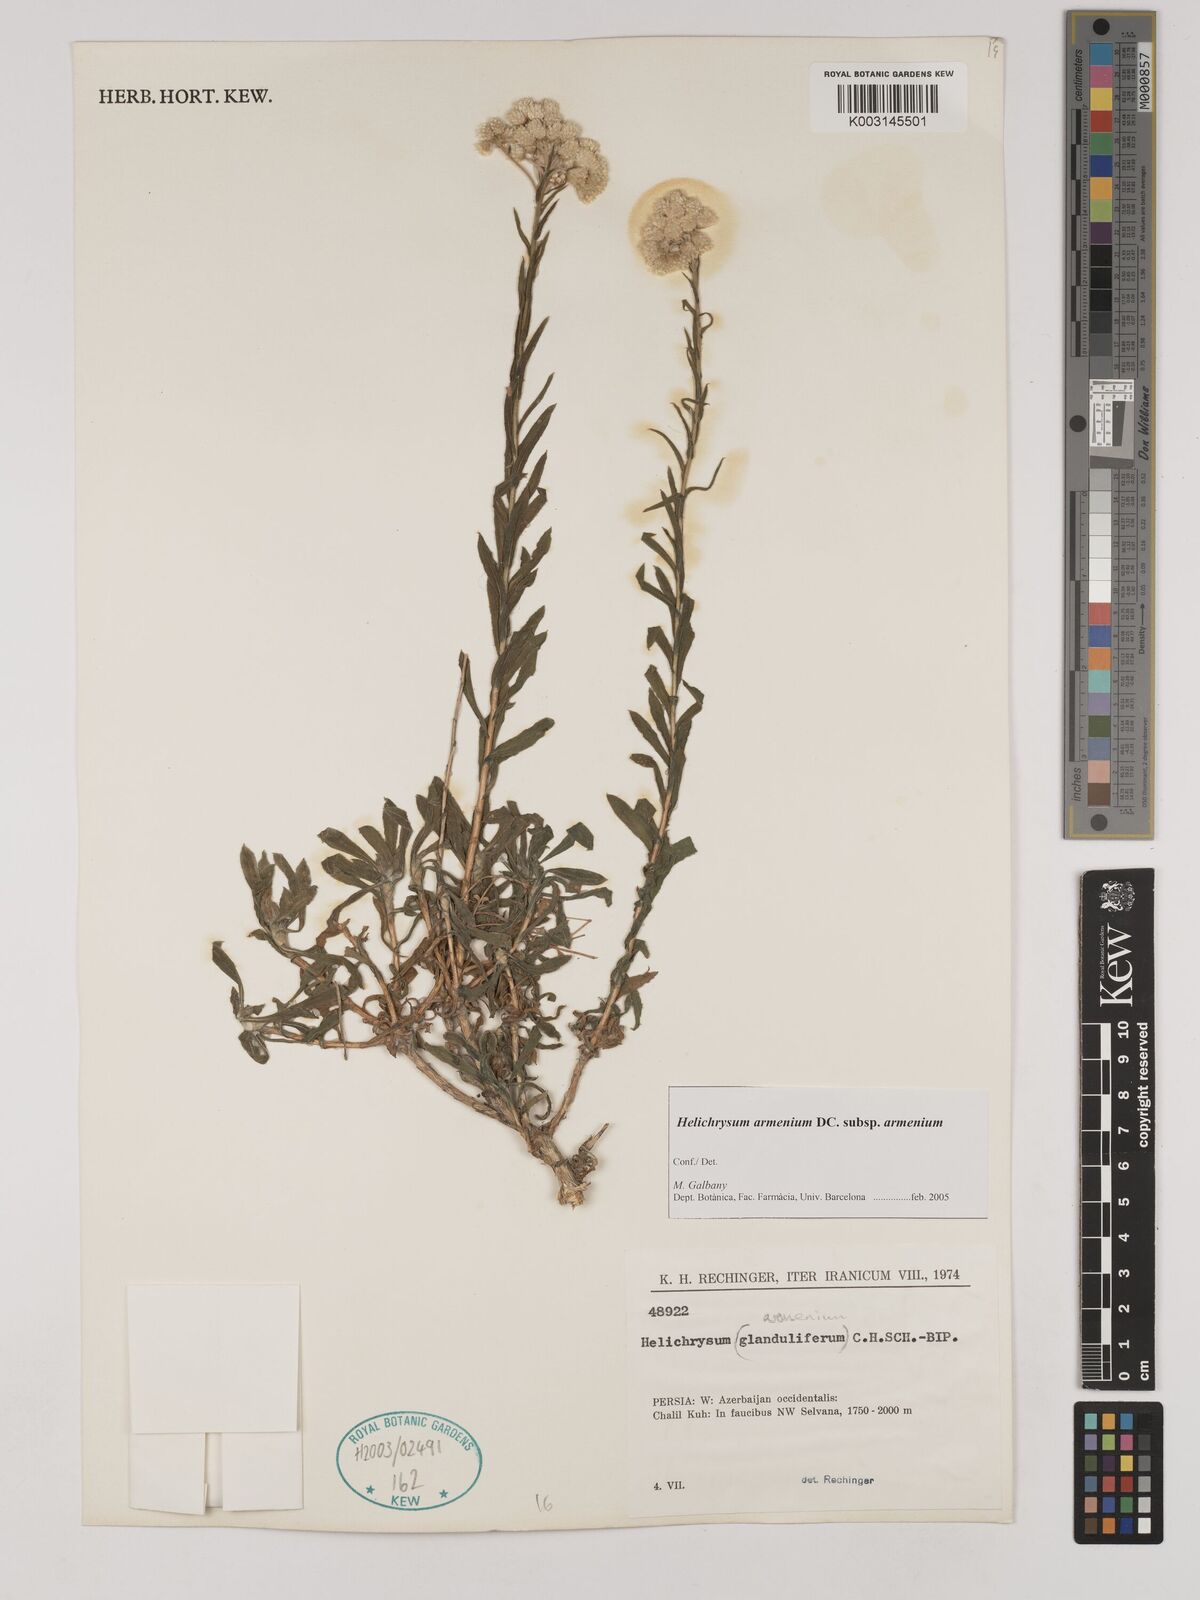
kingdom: Plantae
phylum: Tracheophyta
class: Magnoliopsida
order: Asterales
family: Asteraceae
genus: Helichrysum
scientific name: Helichrysum armenium
